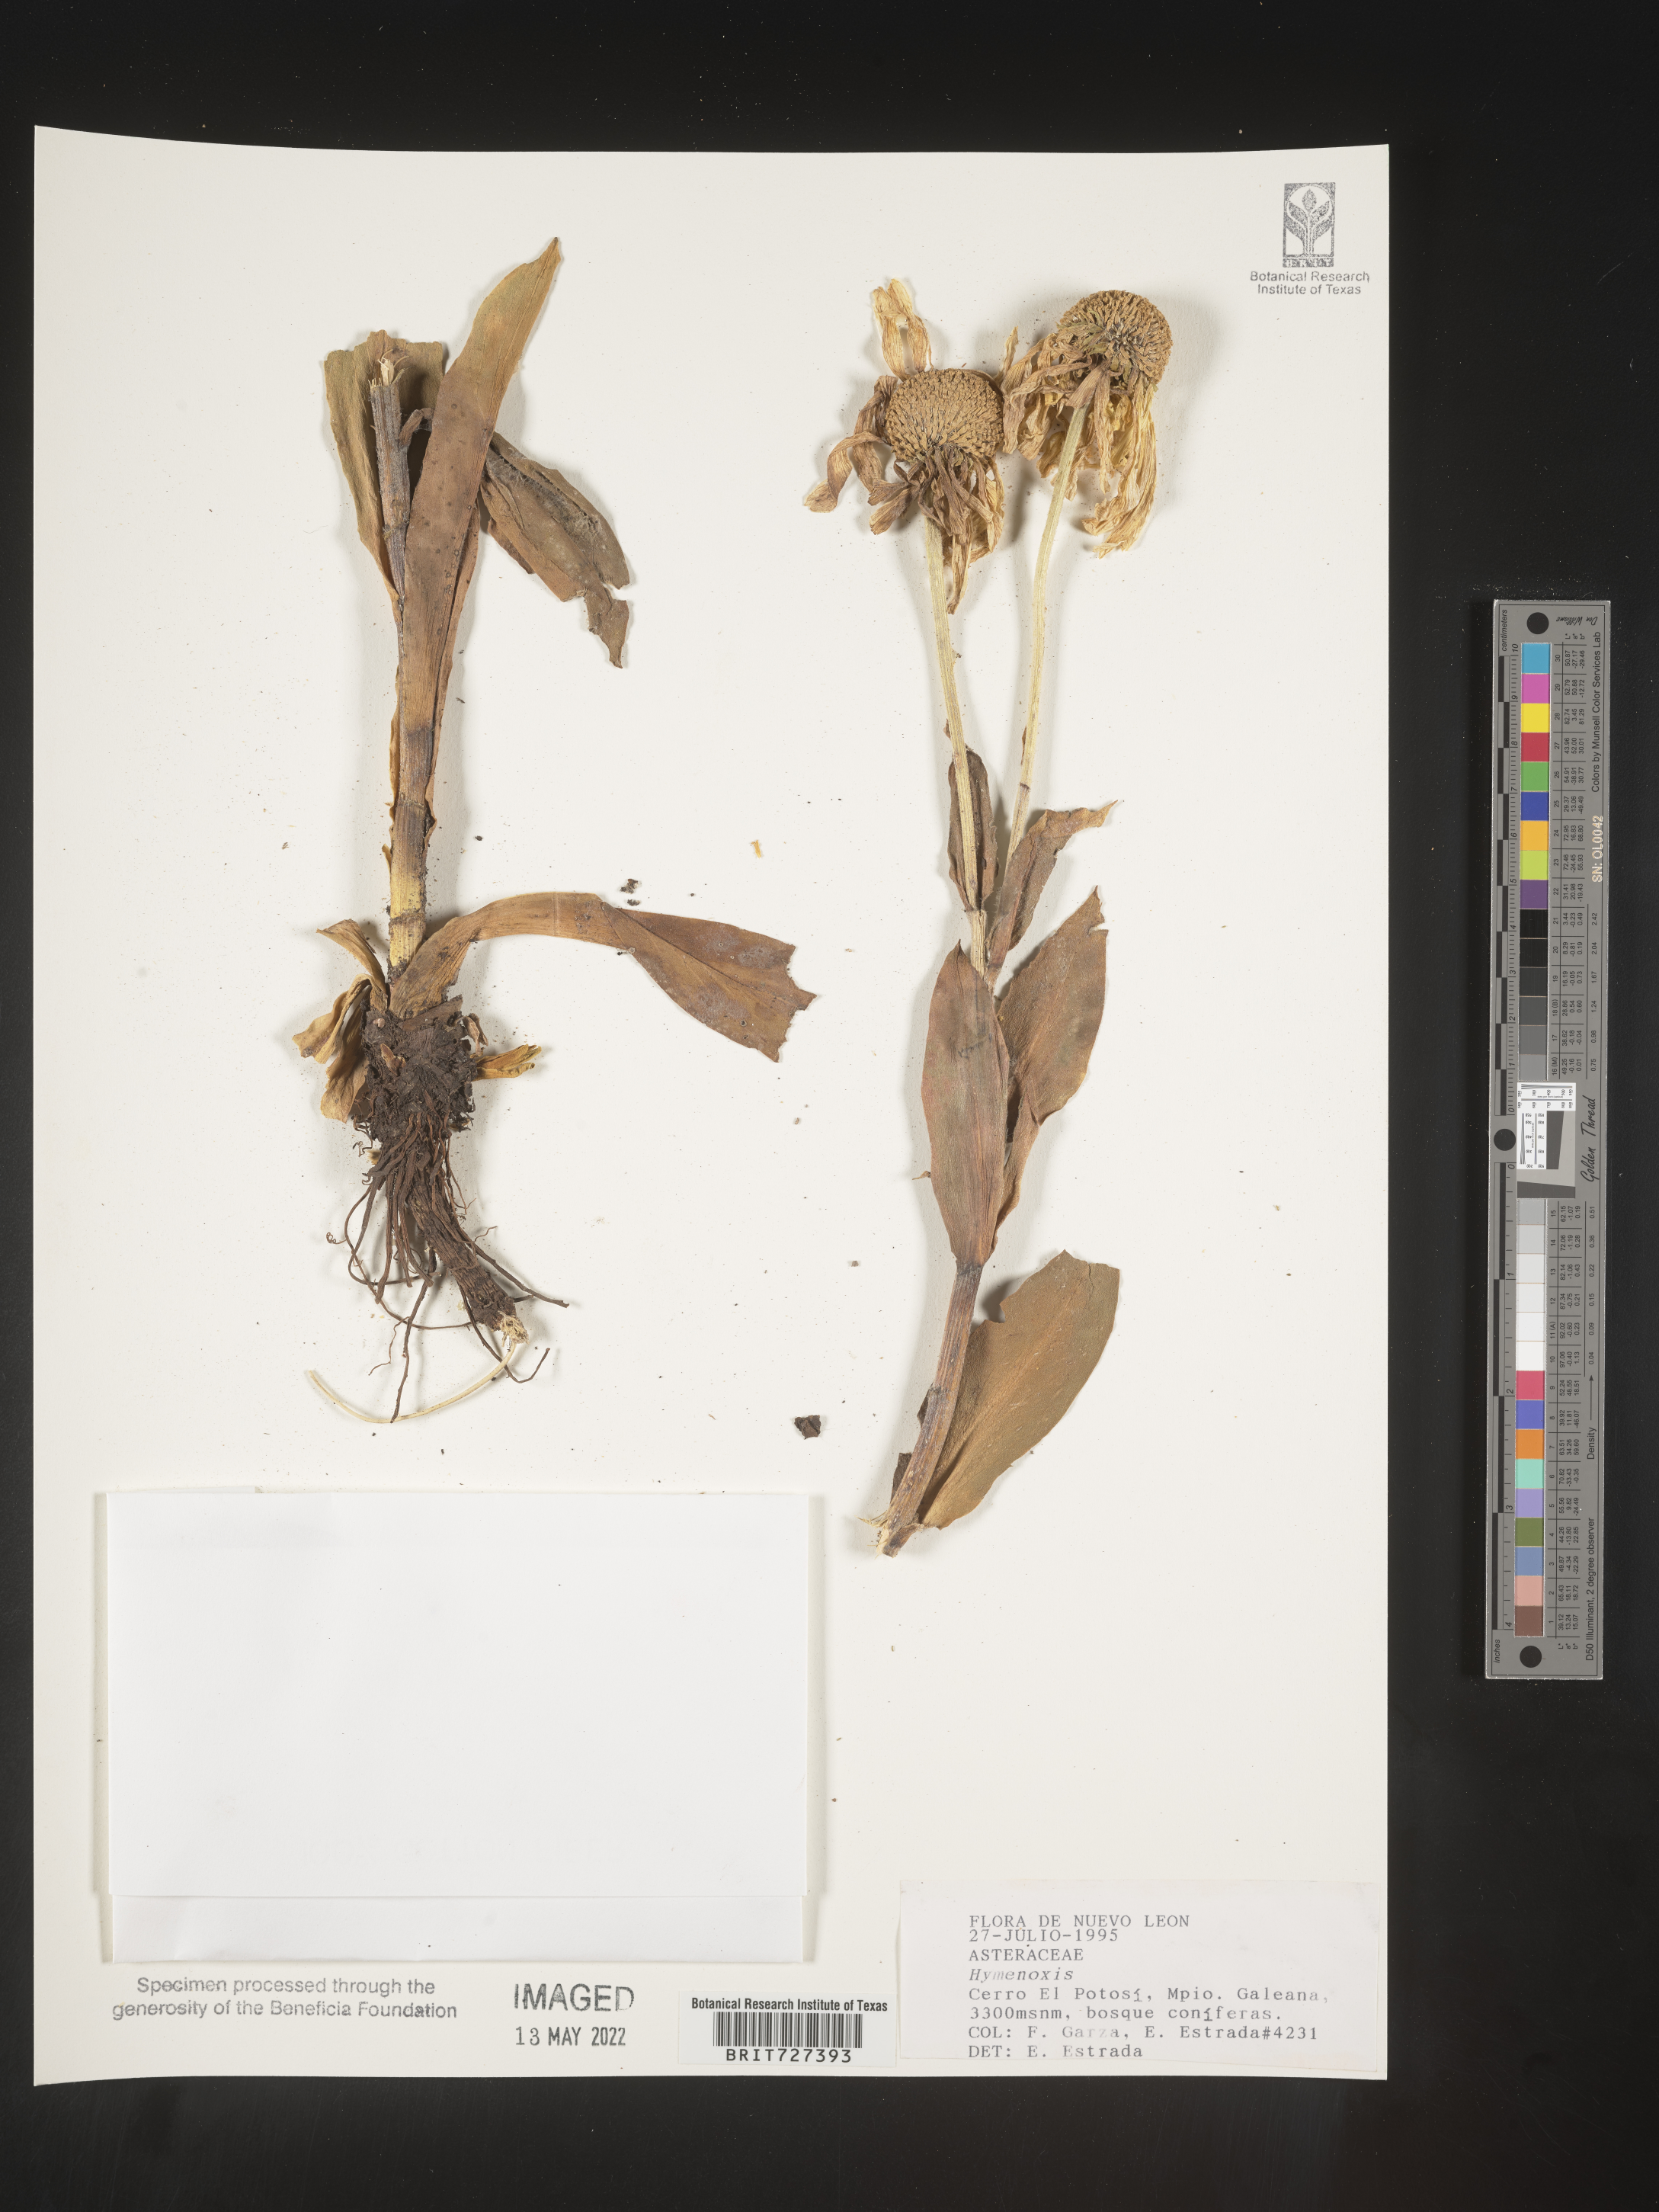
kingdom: Plantae
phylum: Tracheophyta
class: Magnoliopsida
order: Asterales
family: Asteraceae
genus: Hymenoxys
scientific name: Hymenoxys
